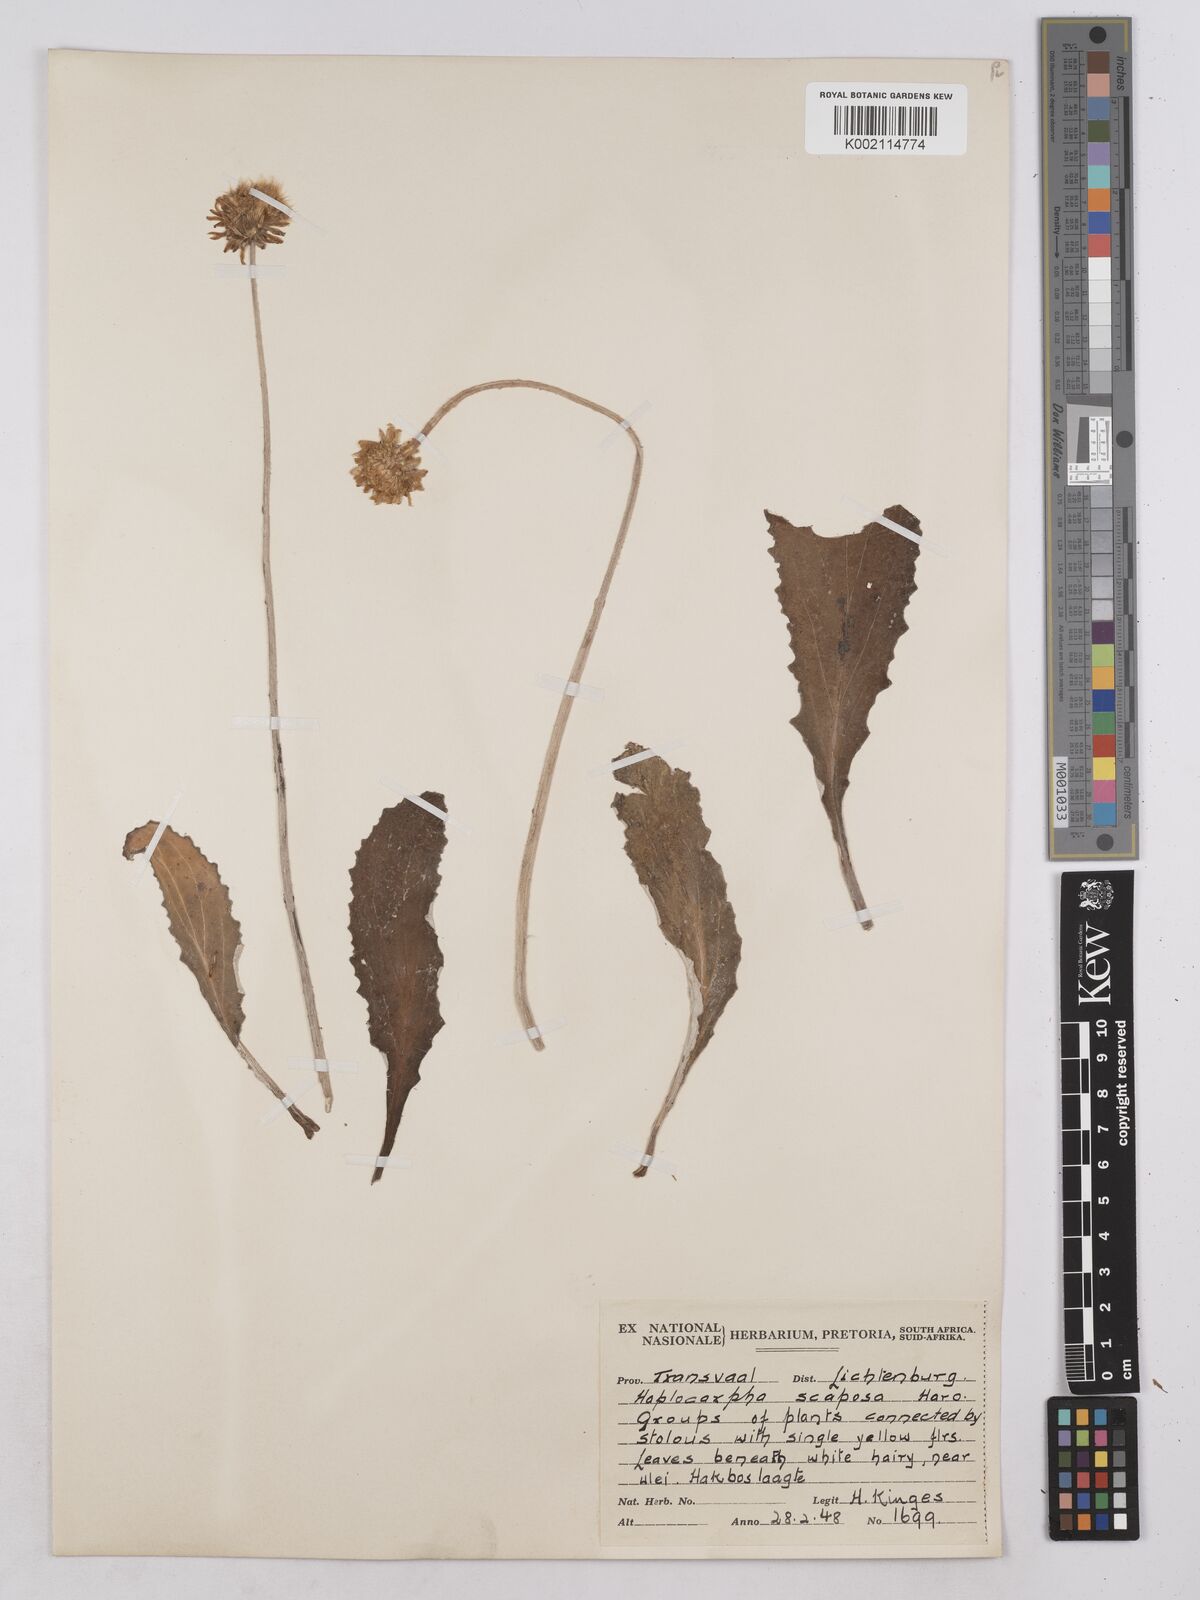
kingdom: Plantae
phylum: Tracheophyta
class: Magnoliopsida
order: Asterales
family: Asteraceae
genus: Haplocarpha
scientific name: Haplocarpha scaposa
